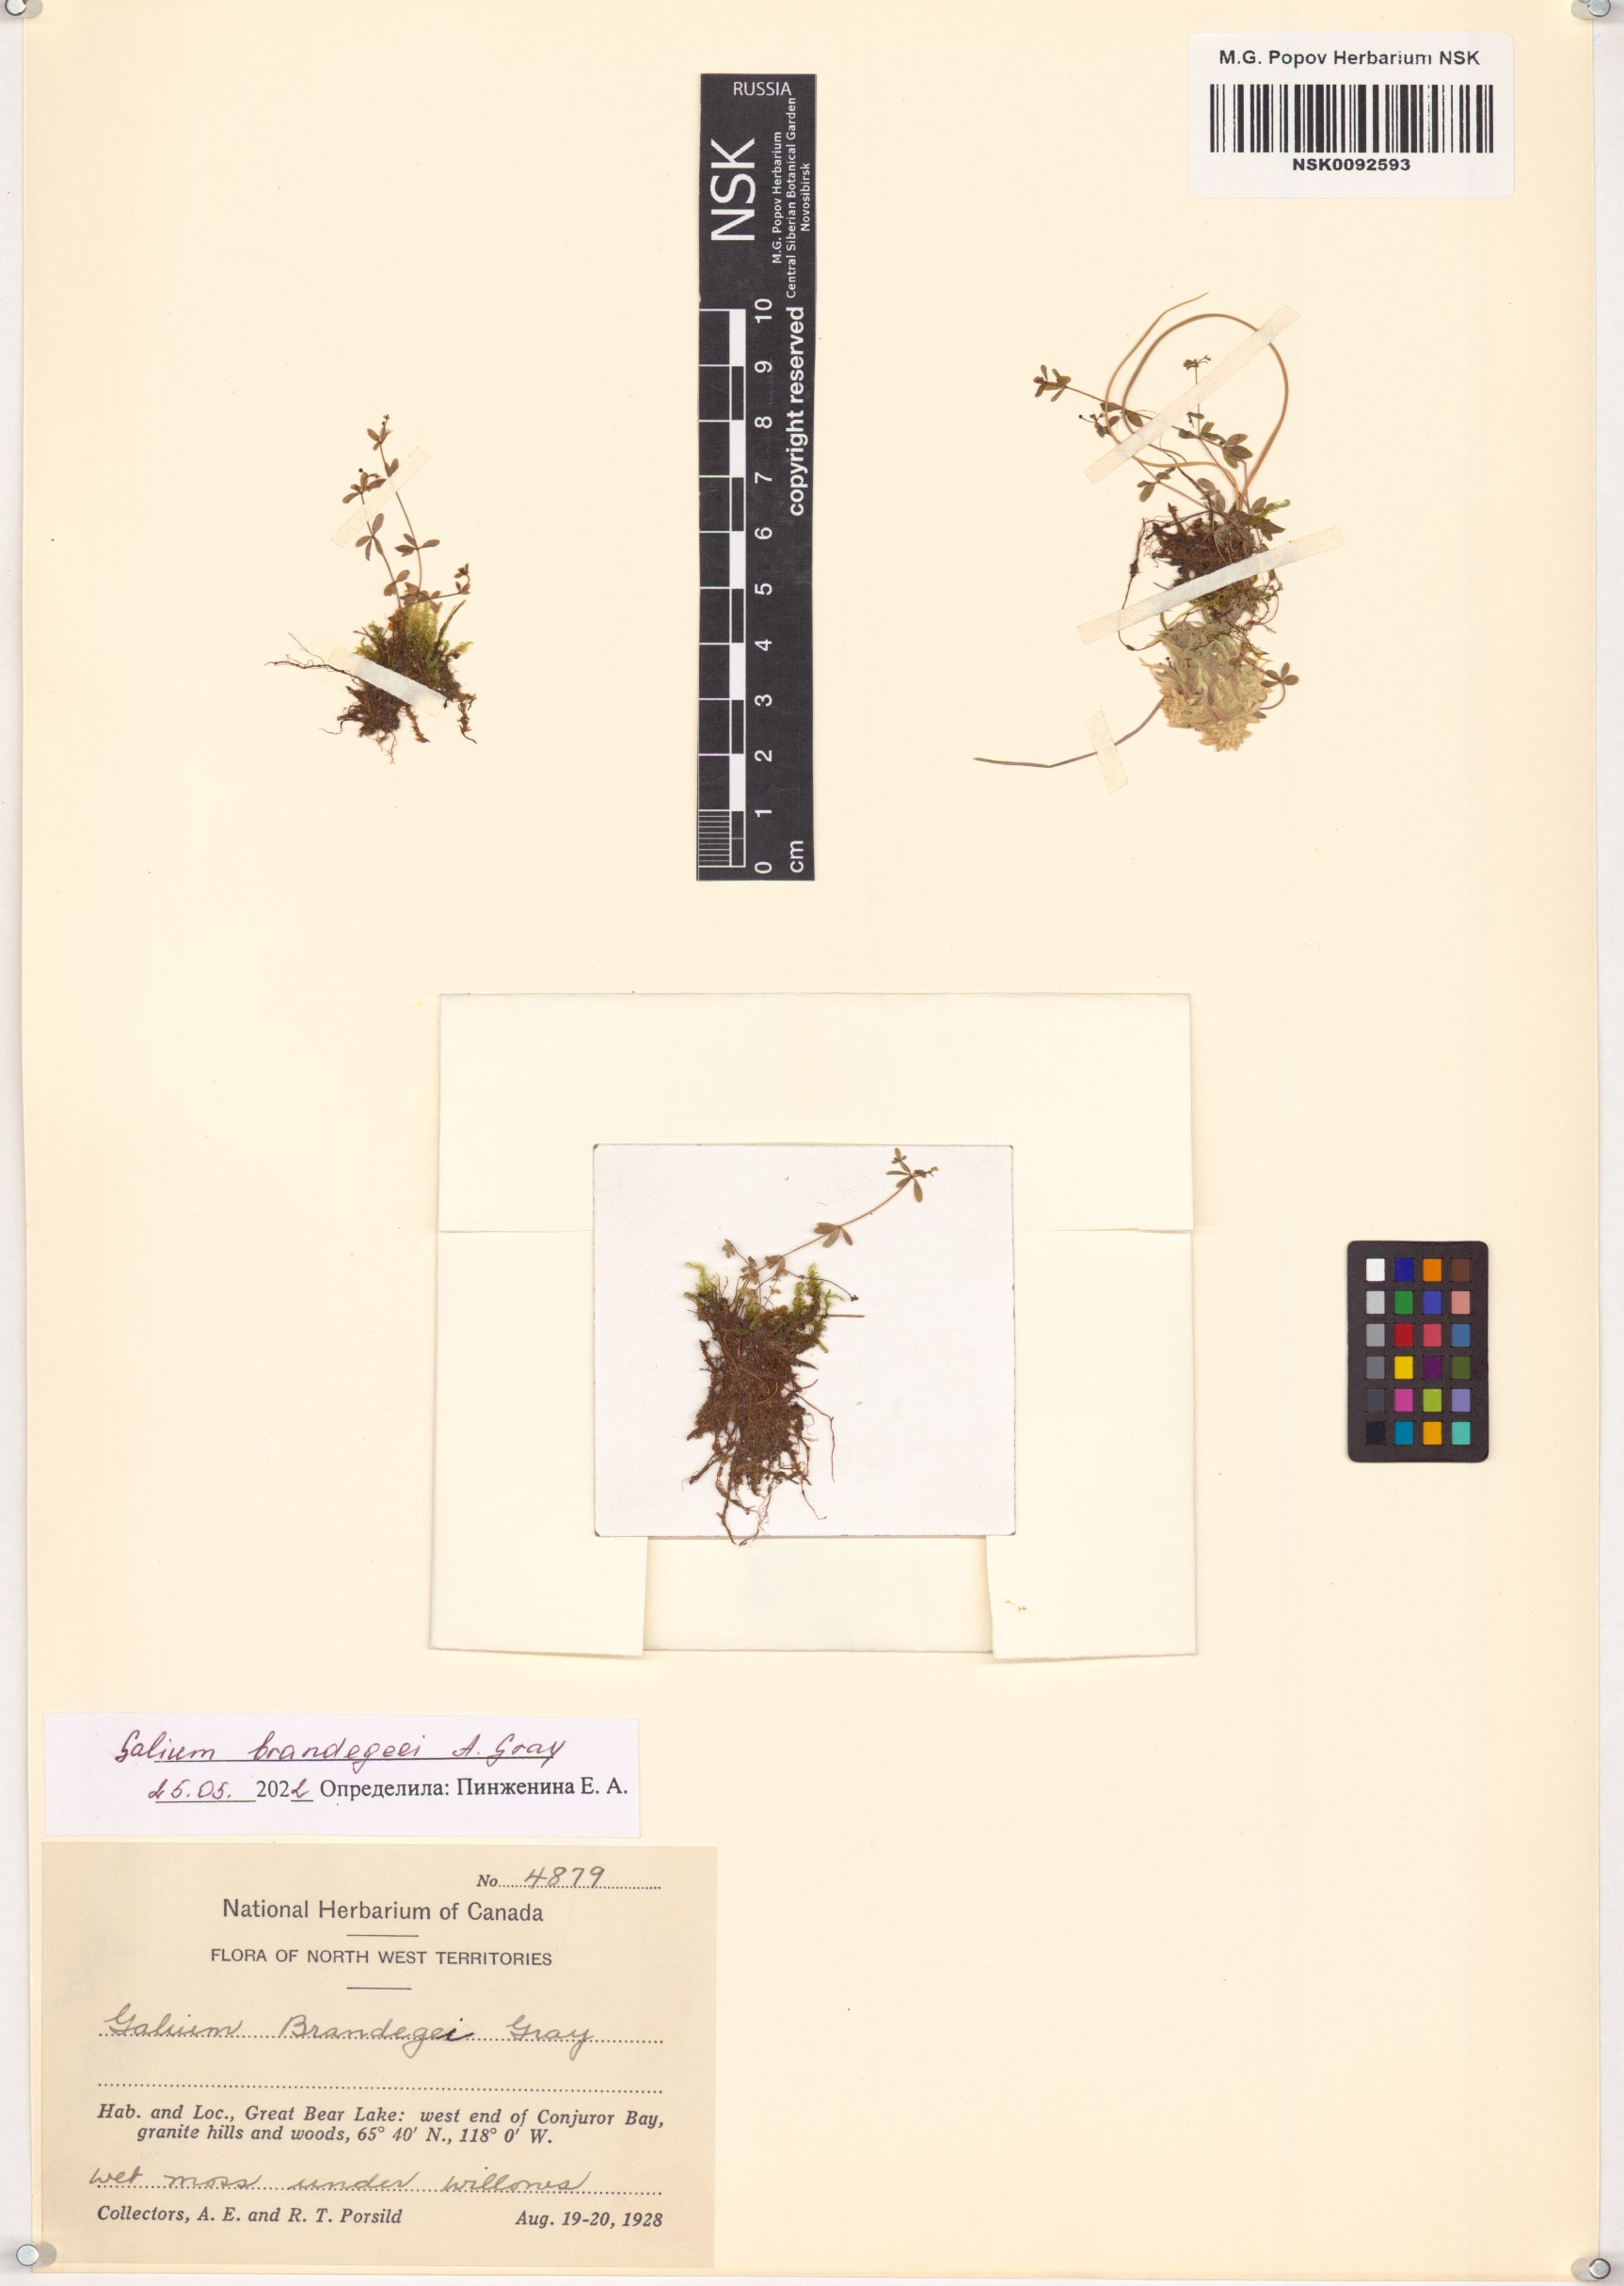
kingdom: Plantae
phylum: Tracheophyta
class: Magnoliopsida
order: Gentianales
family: Rubiaceae
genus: Galium
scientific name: Galium trifidum
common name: Small bedstraw
